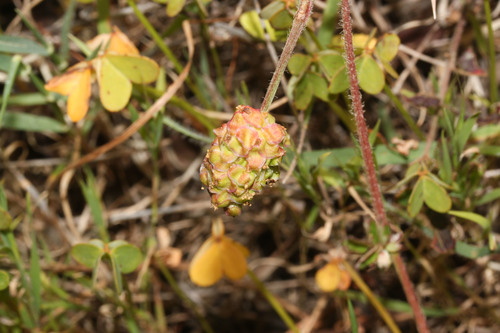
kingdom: Plantae
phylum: Tracheophyta
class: Magnoliopsida
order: Rosales
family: Rosaceae
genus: Sanguisorba
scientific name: Sanguisorba hybrida
